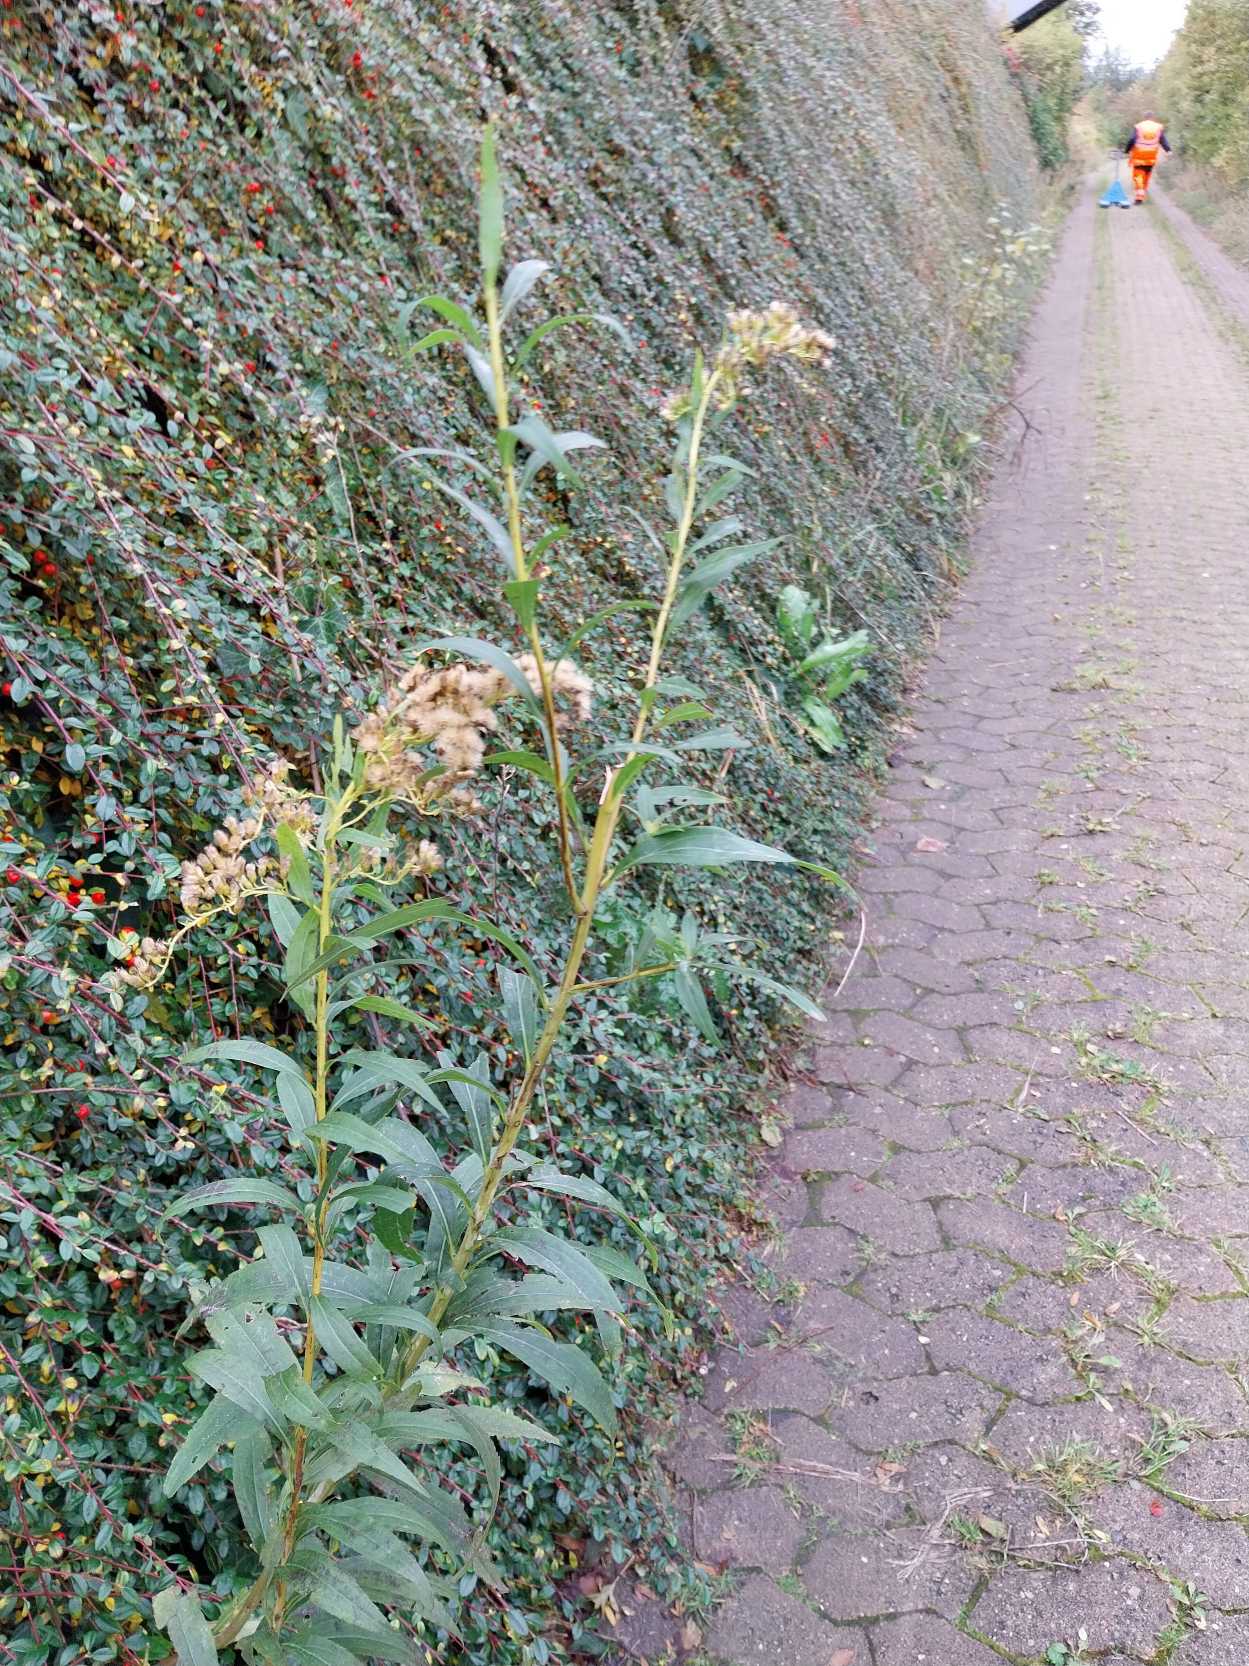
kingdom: Plantae
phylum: Tracheophyta
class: Magnoliopsida
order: Asterales
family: Asteraceae
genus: Solidago
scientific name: Solidago gigantea
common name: Sildig gyldenris
